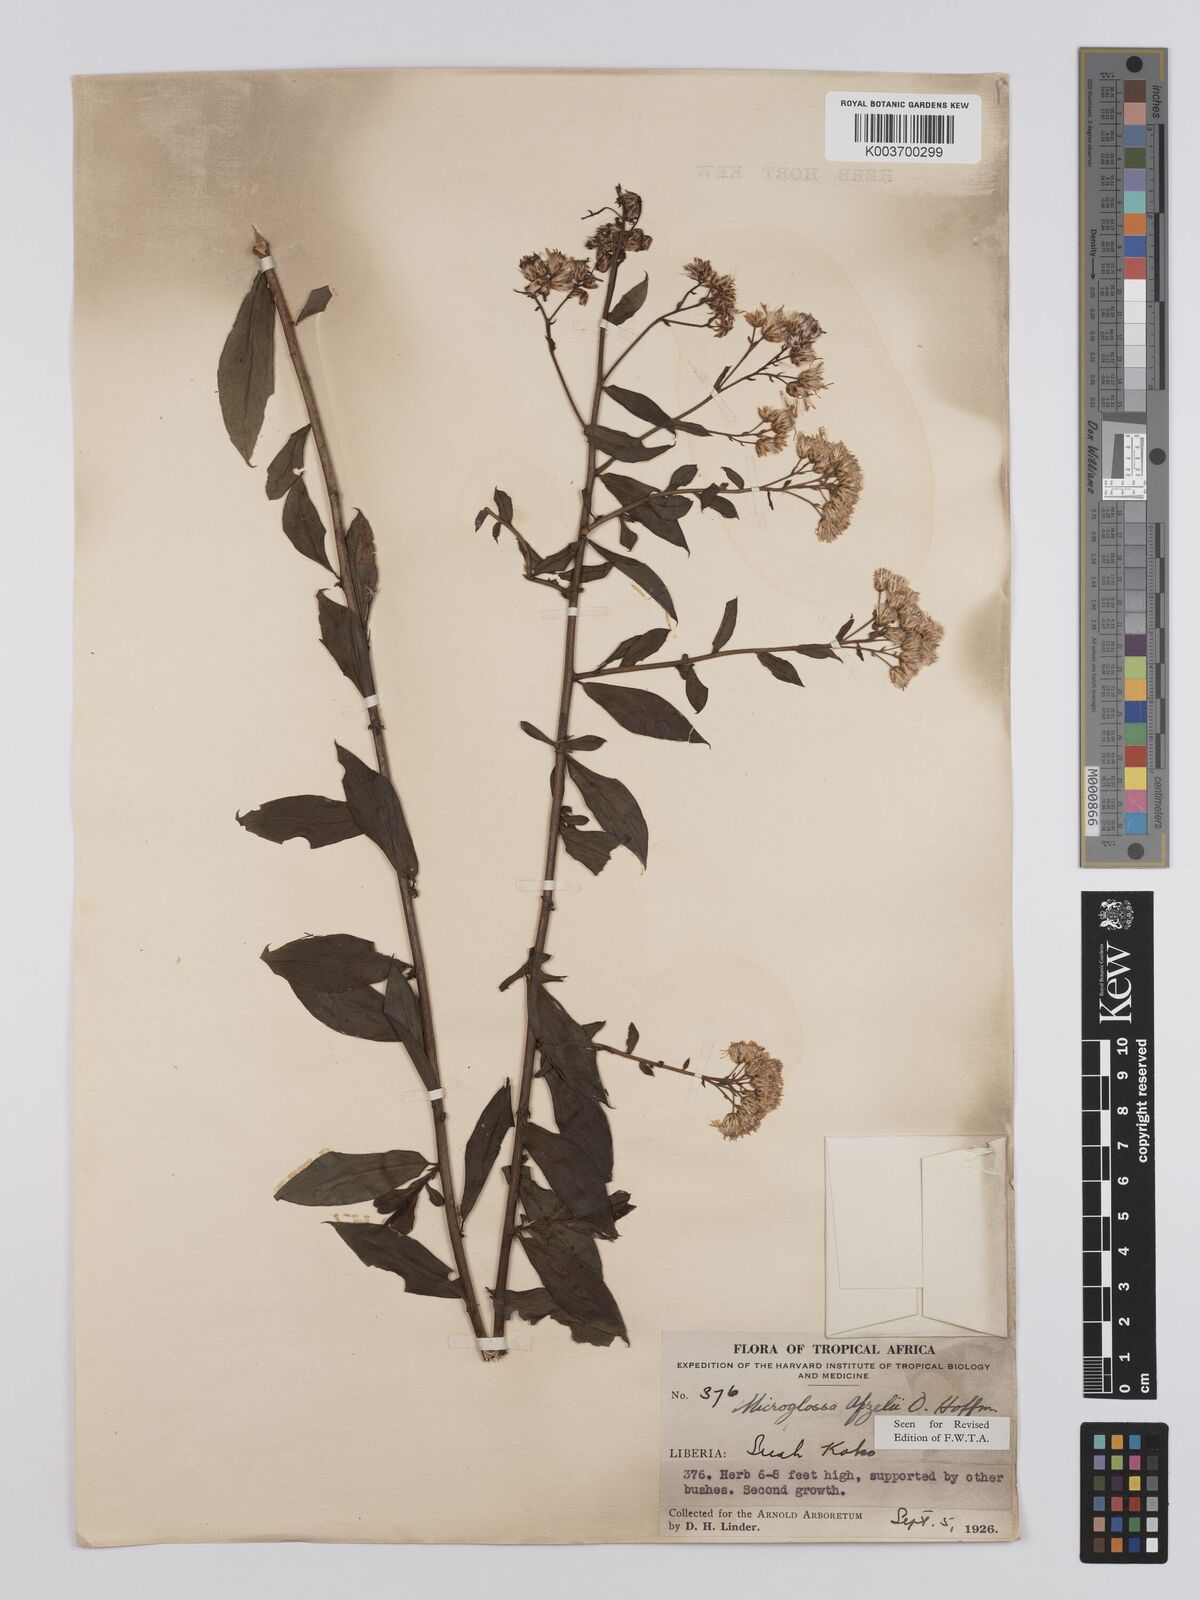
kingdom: Plantae
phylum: Tracheophyta
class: Magnoliopsida
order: Asterales
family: Asteraceae
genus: Microglossa
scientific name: Microglossa afzelii
